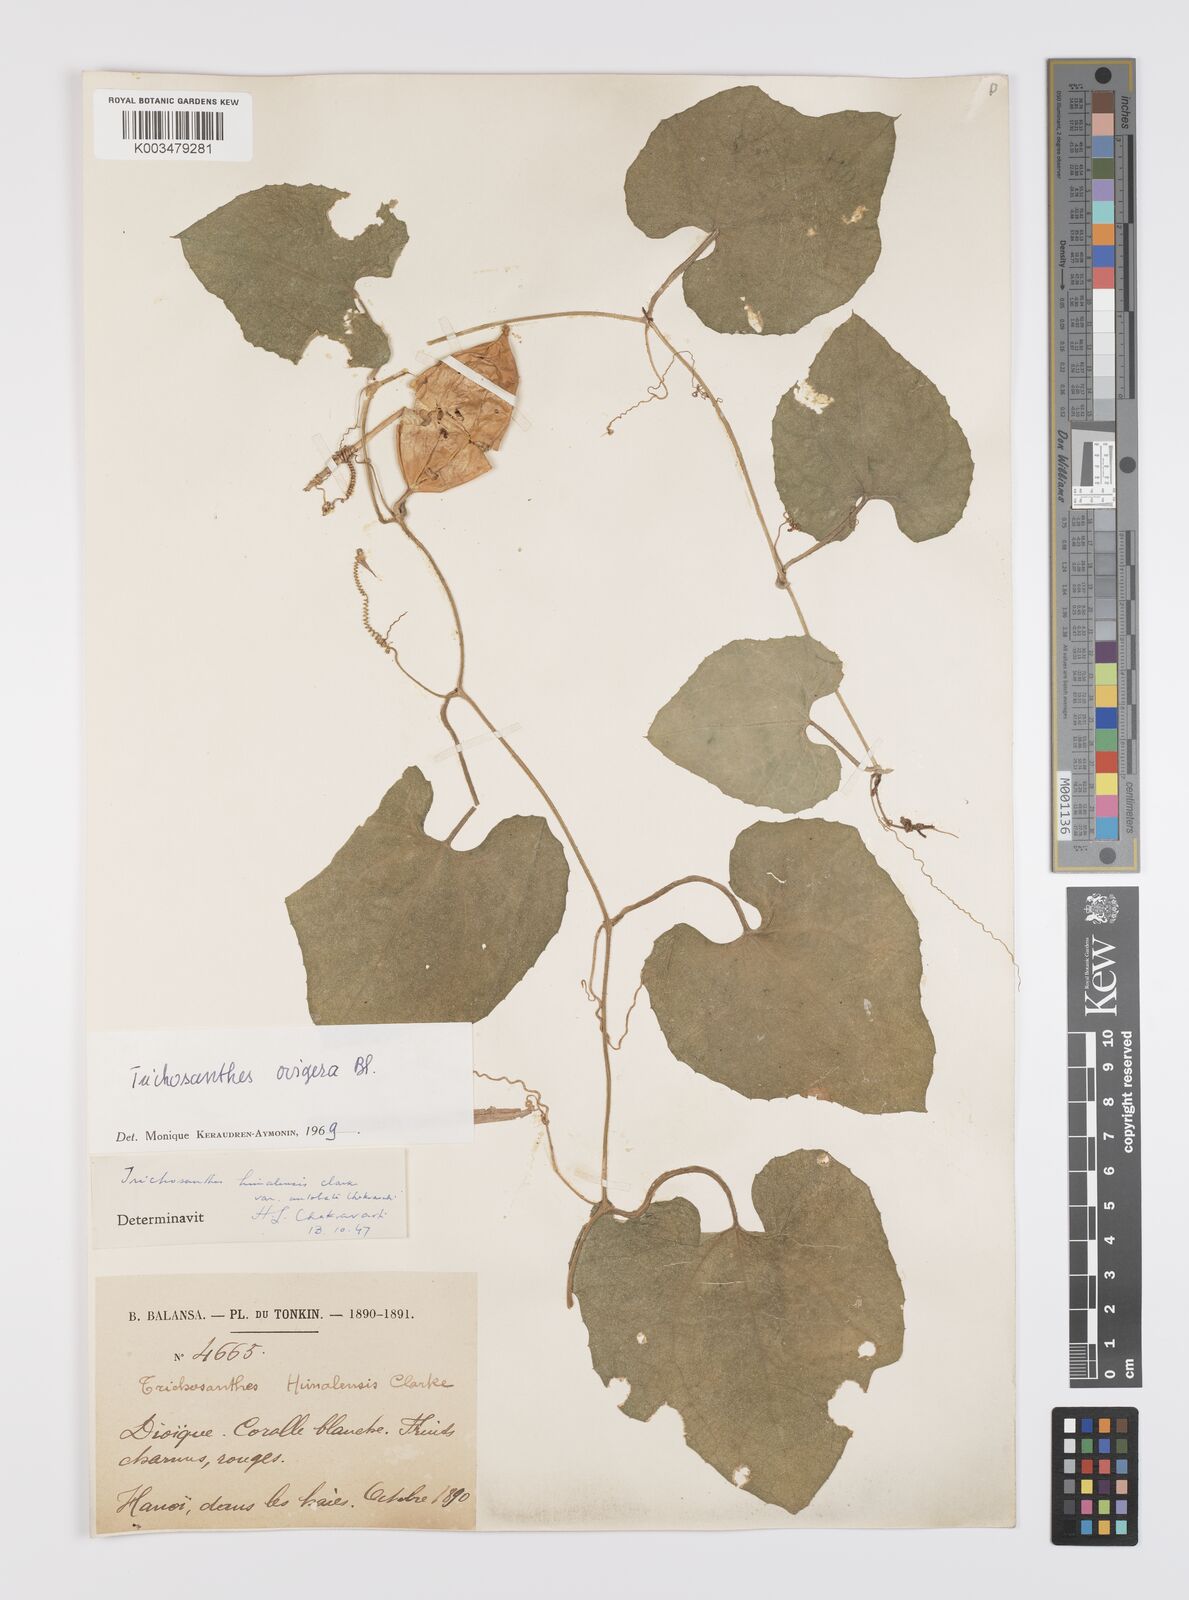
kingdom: Plantae
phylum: Tracheophyta
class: Magnoliopsida
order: Cucurbitales
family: Cucurbitaceae
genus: Trichosanthes
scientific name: Trichosanthes ovigera
